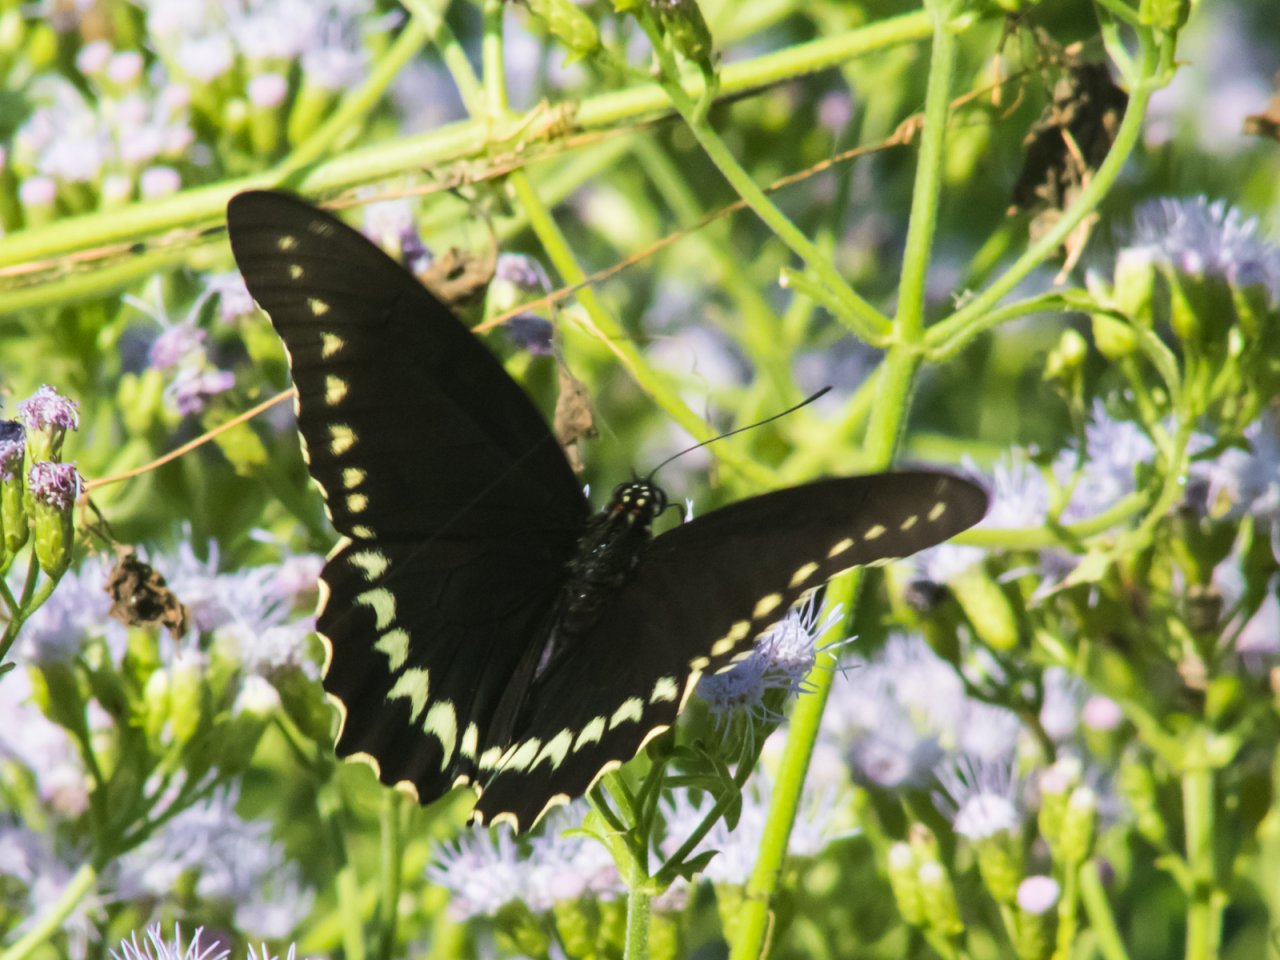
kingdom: Animalia
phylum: Arthropoda
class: Insecta
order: Lepidoptera
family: Papilionidae
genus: Battus
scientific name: Battus polydamas
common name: Polydamas Swallowtail
